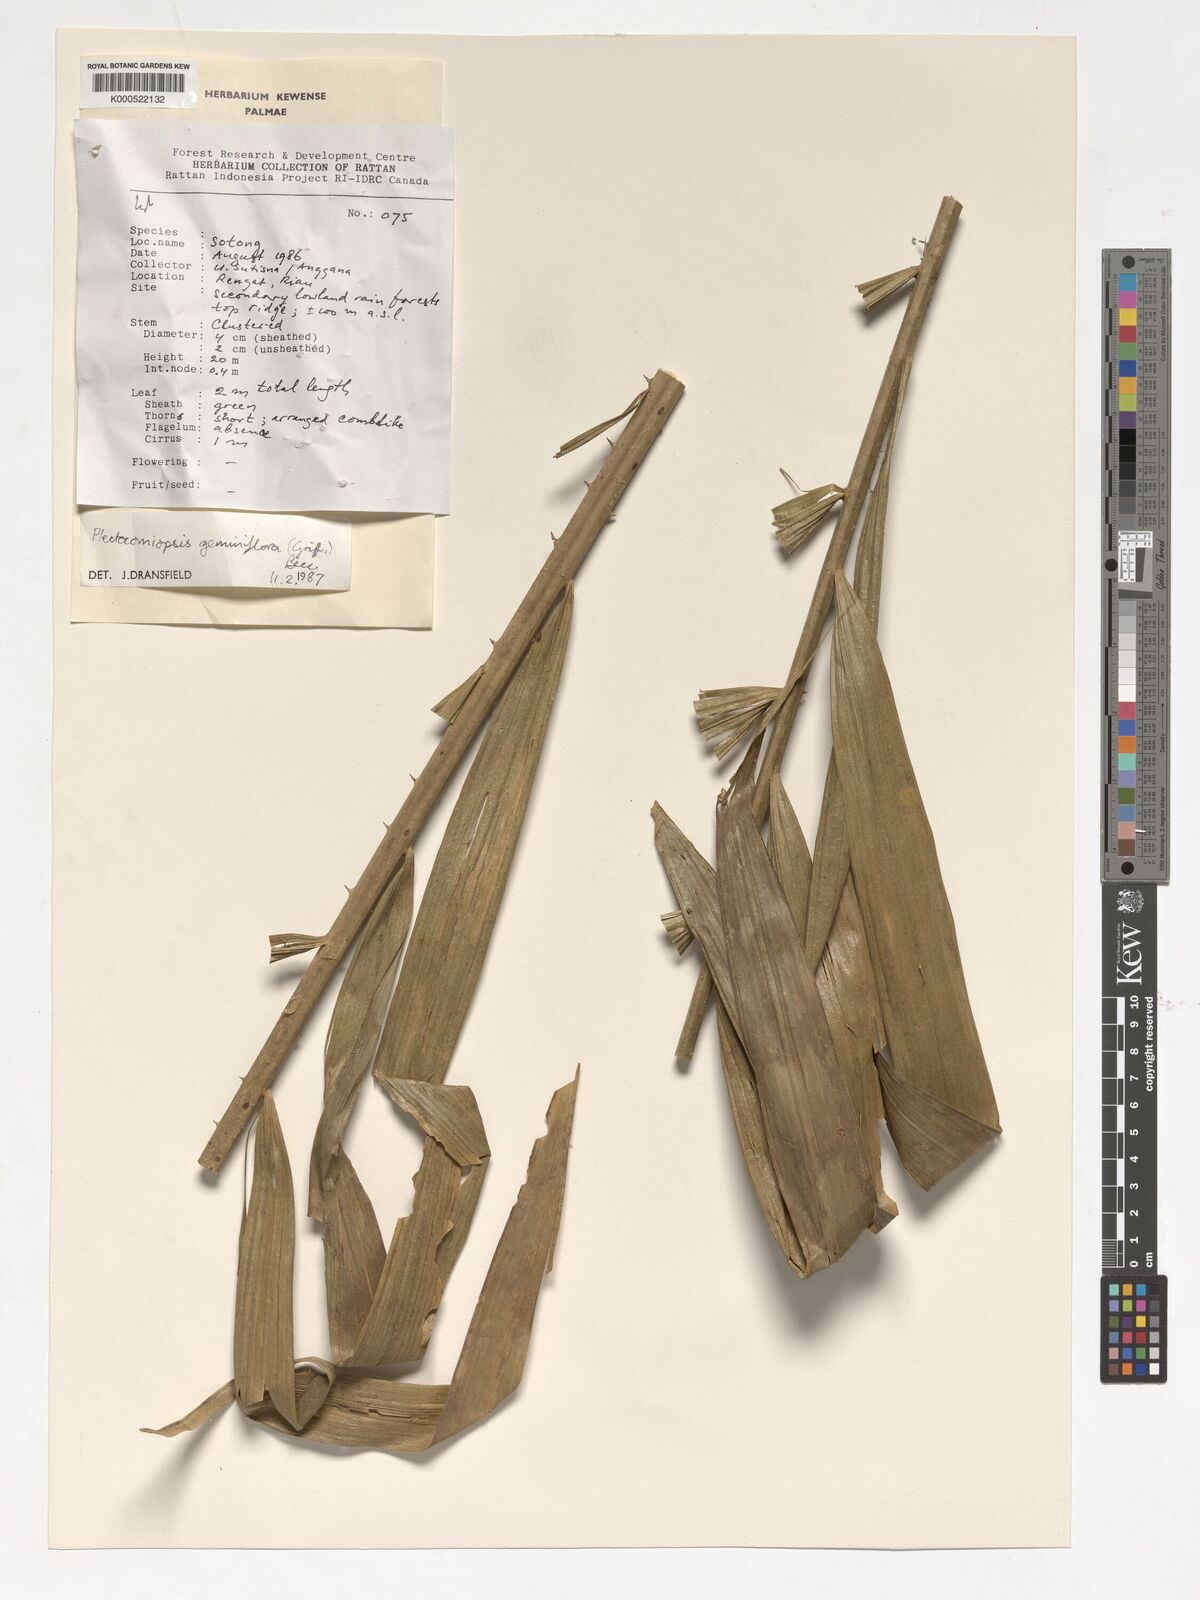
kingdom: Plantae
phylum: Tracheophyta
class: Liliopsida
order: Arecales
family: Arecaceae
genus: Plectocomiopsis
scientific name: Plectocomiopsis geminiflora
